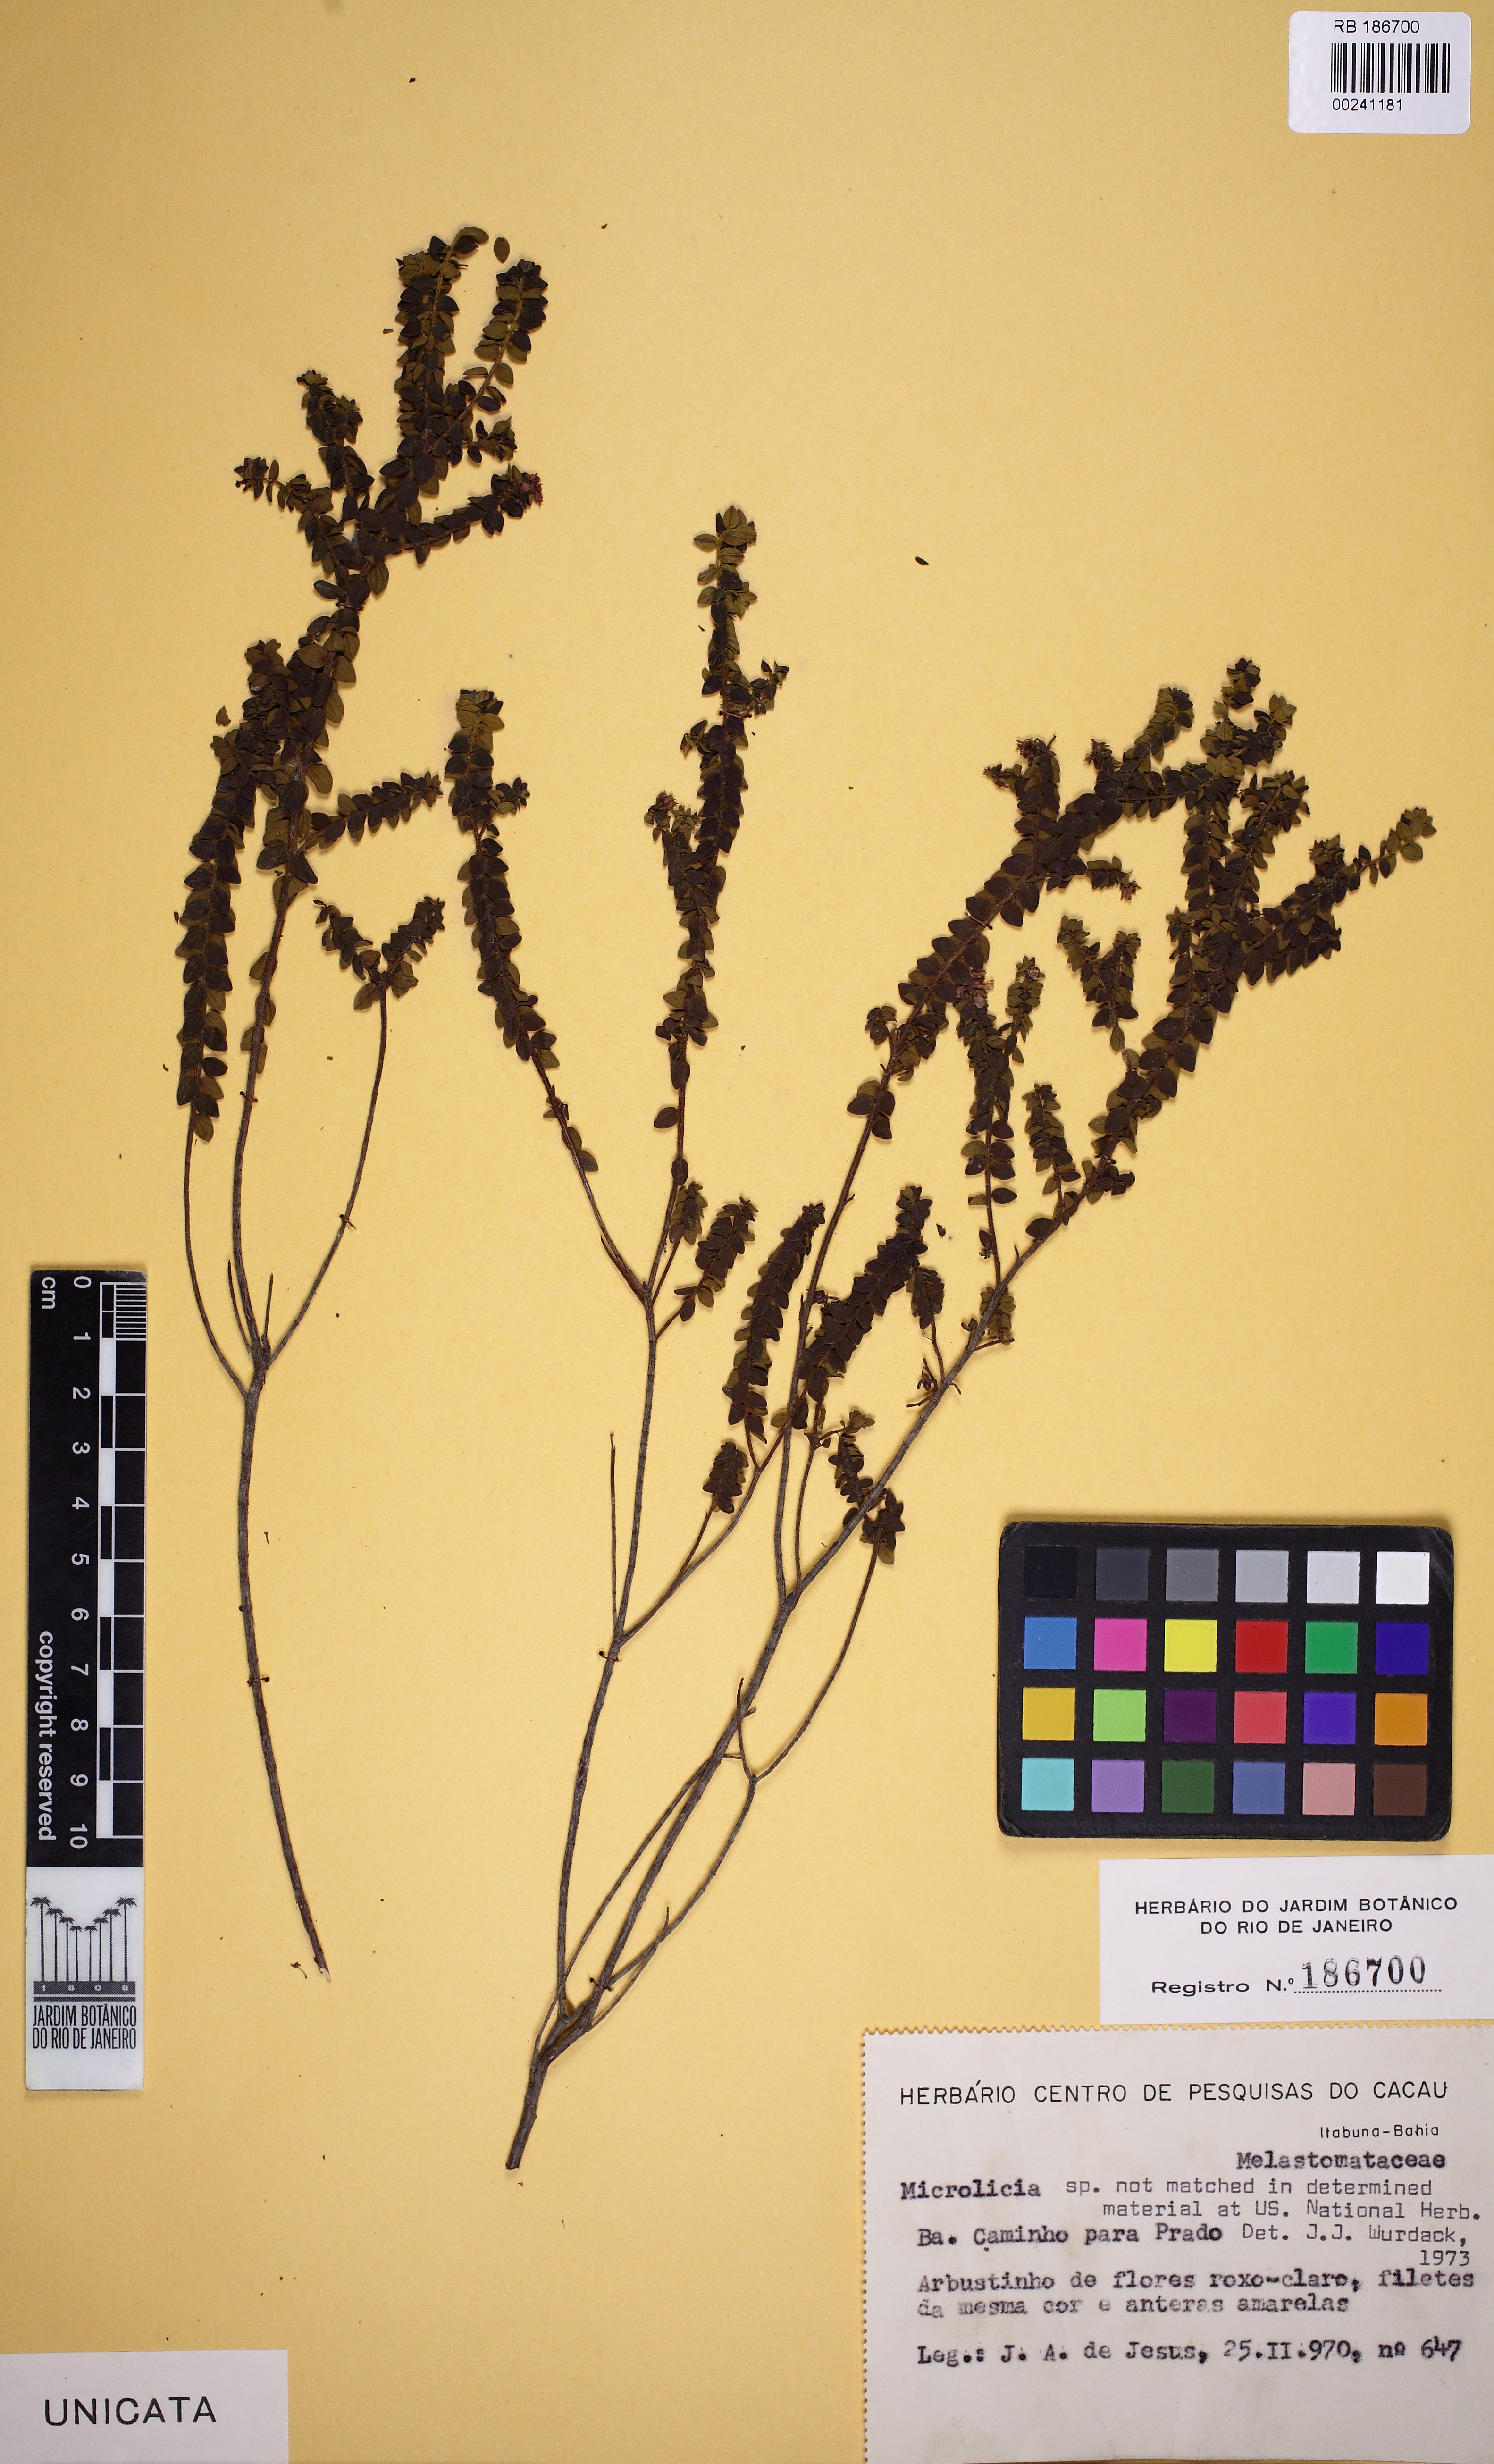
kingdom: Plantae
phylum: Tracheophyta
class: Magnoliopsida
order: Myrtales
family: Melastomataceae
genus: Microlicia
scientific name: Microlicia cordata
